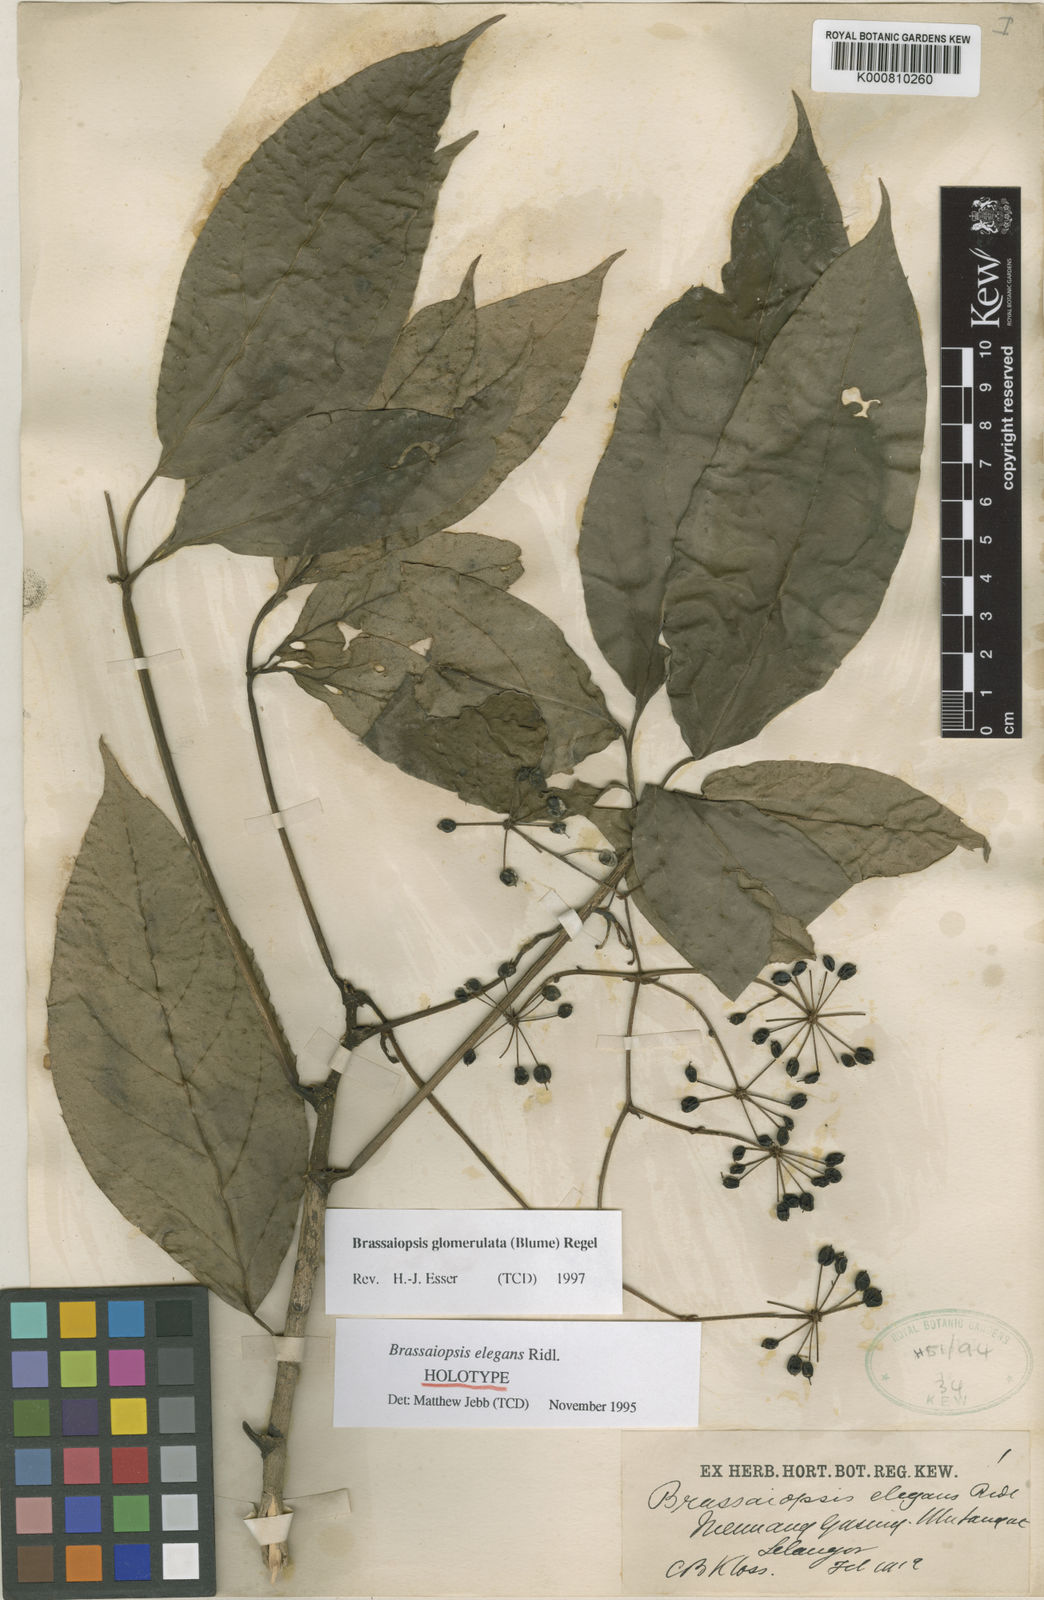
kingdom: Plantae
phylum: Tracheophyta
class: Magnoliopsida
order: Apiales
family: Araliaceae
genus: Brassaiopsis
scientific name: Brassaiopsis glomerulata
